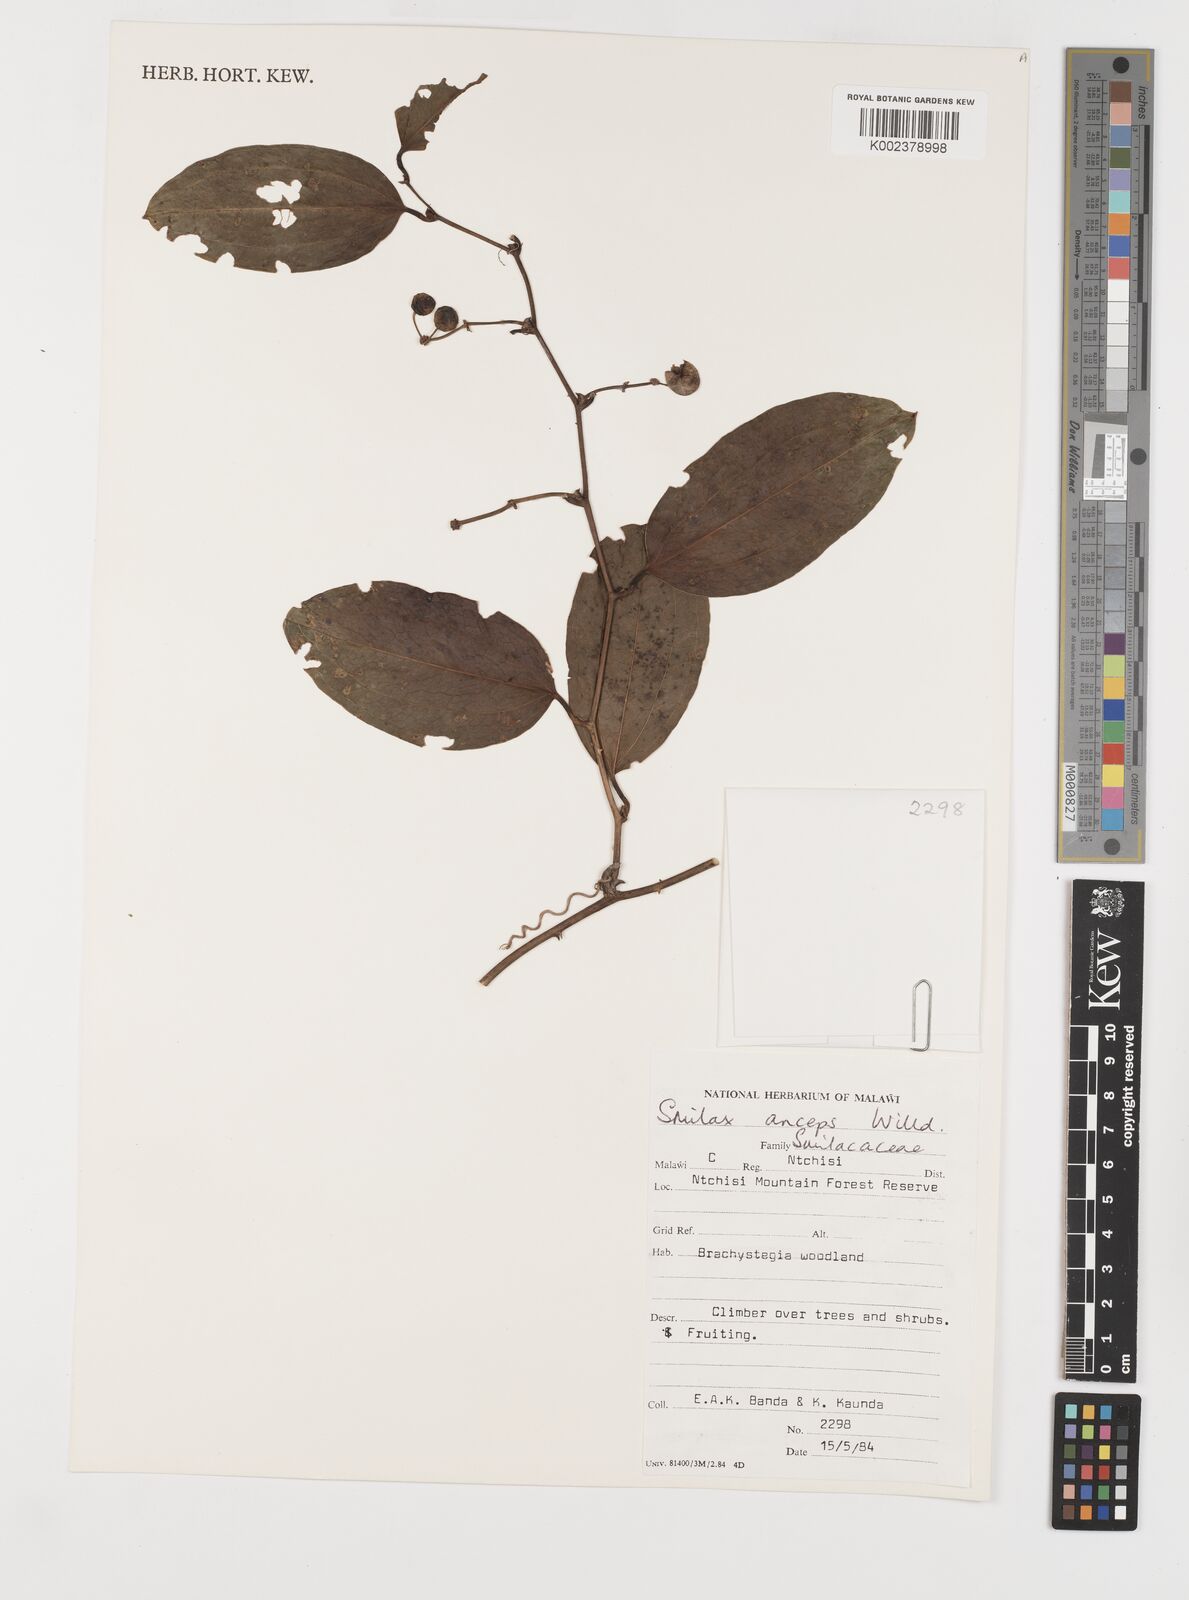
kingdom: Plantae
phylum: Tracheophyta
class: Liliopsida
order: Liliales
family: Smilacaceae
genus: Smilax
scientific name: Smilax anceps
